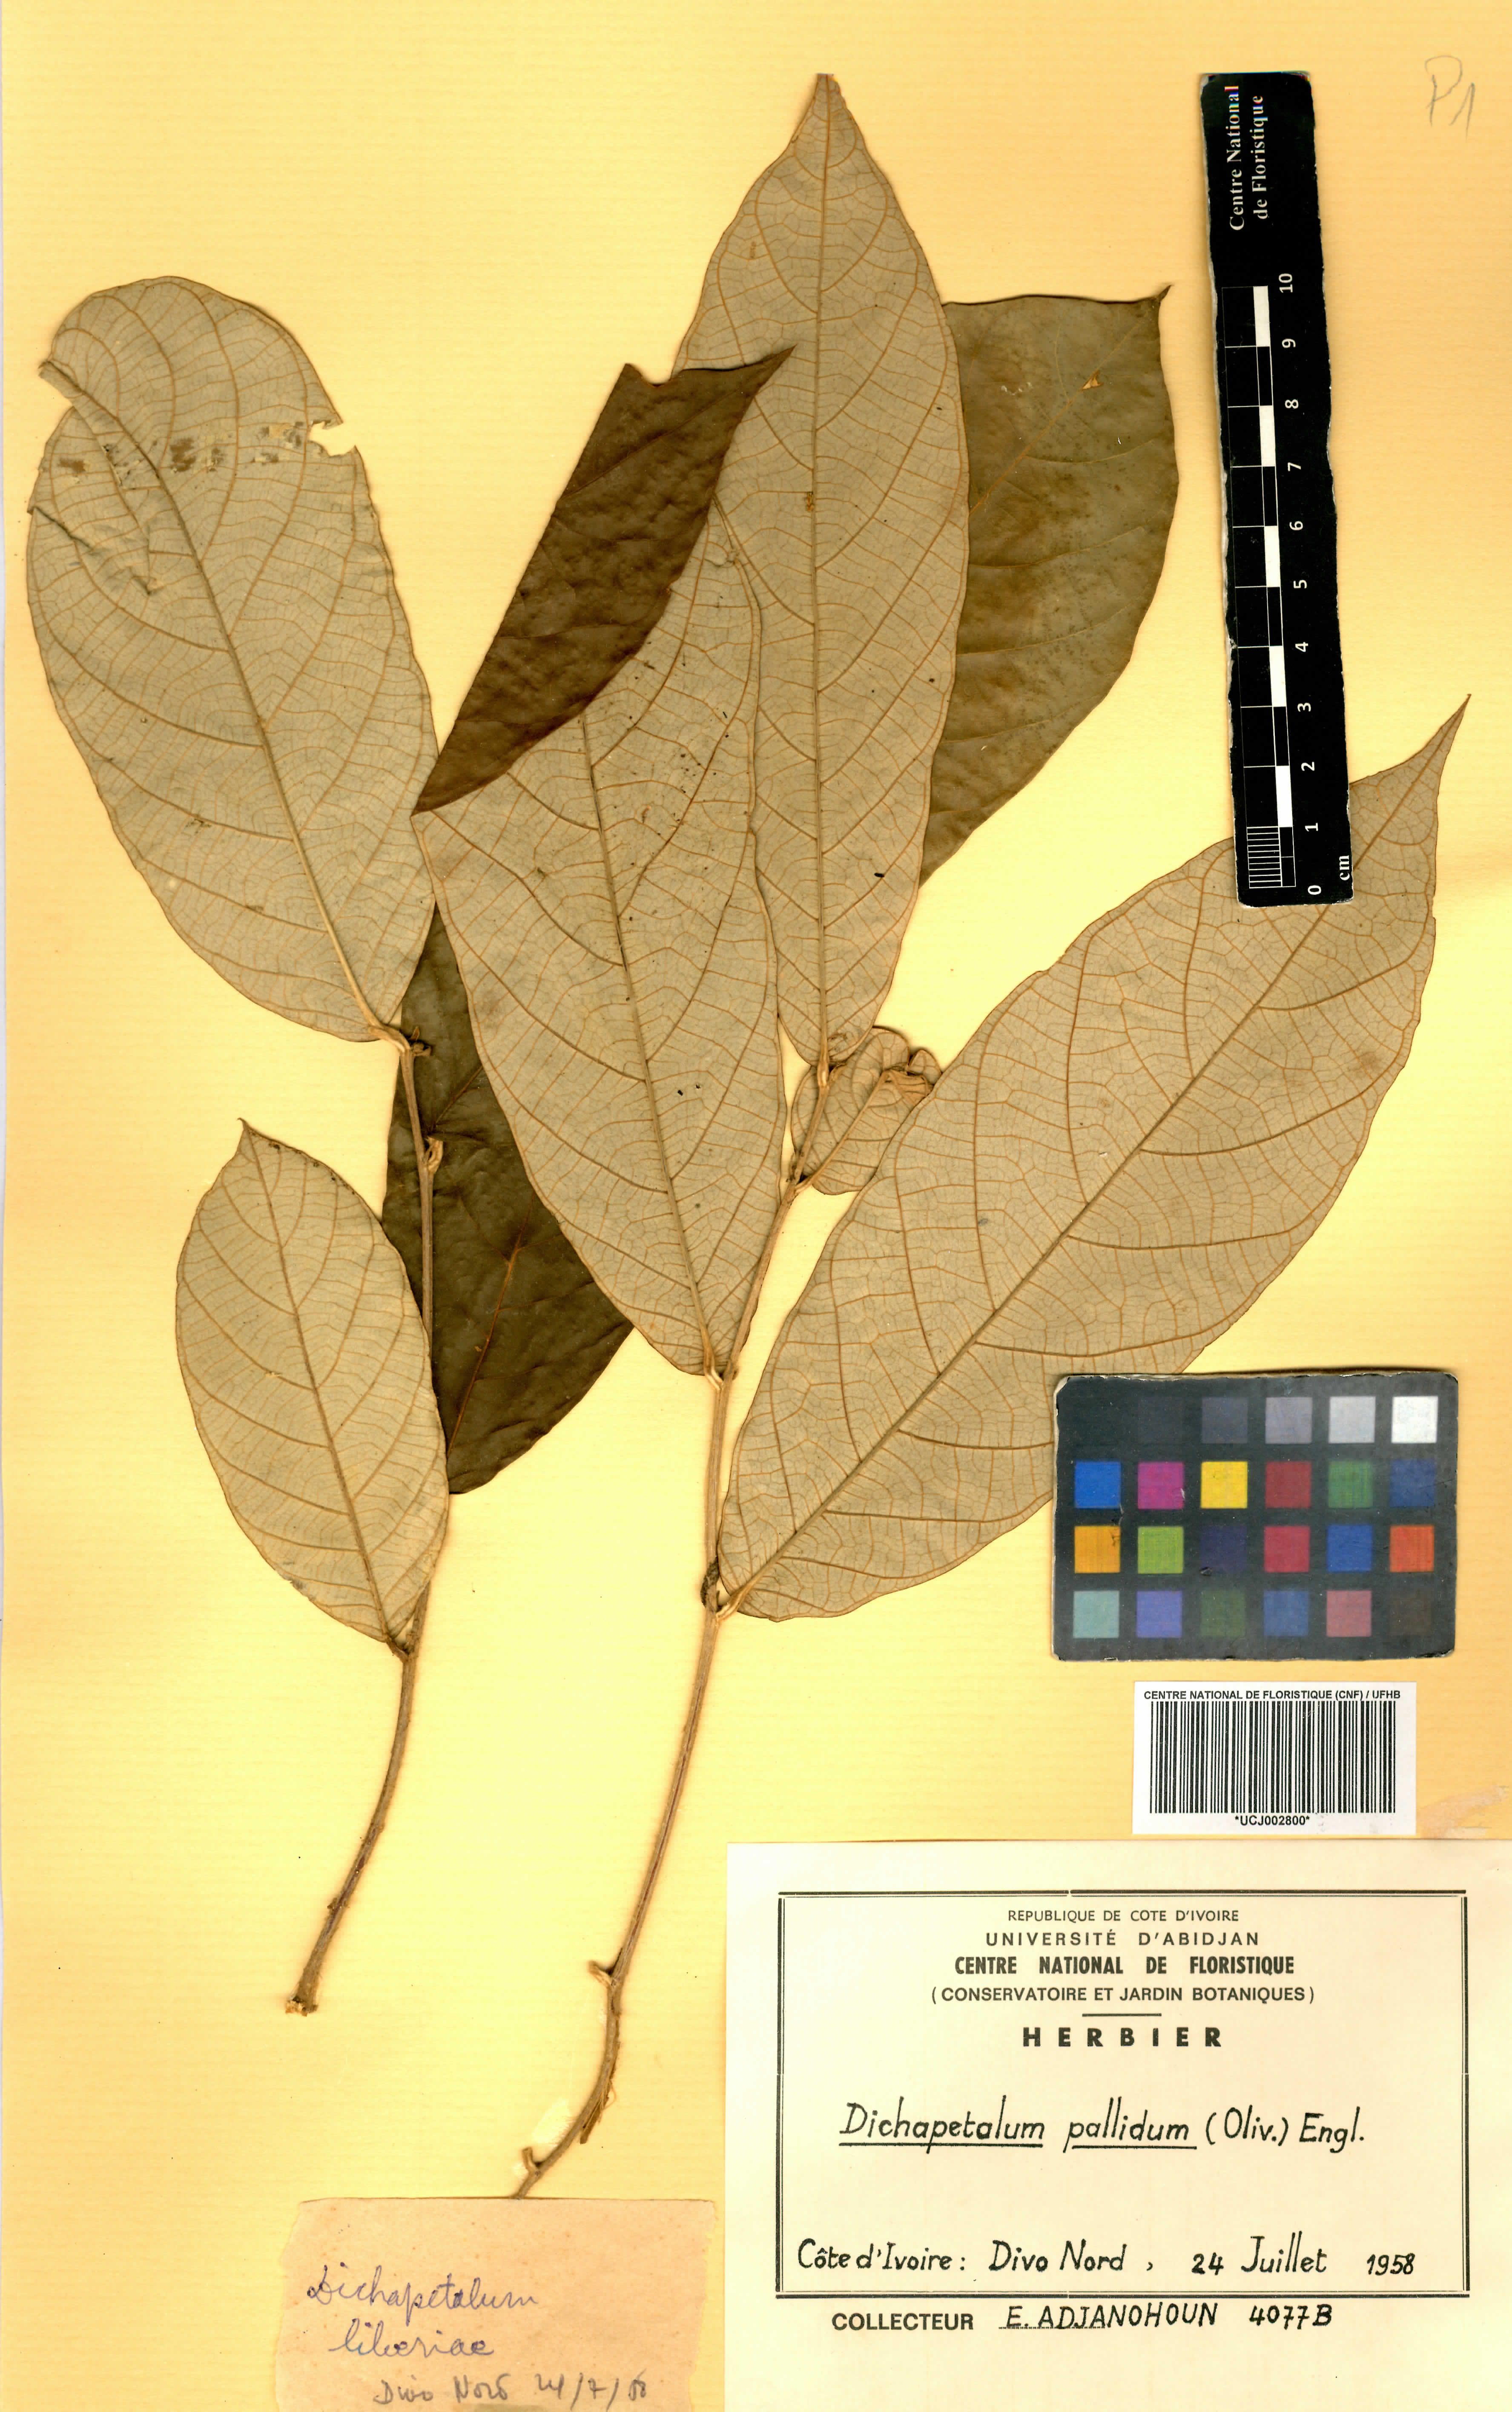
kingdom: Plantae
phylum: Tracheophyta
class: Magnoliopsida
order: Malpighiales
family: Dichapetalaceae
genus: Dichapetalum
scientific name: Dichapetalum pallidum
